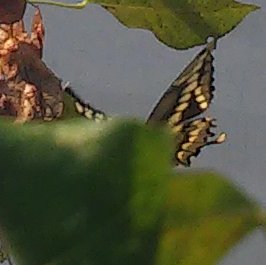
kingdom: Animalia
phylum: Arthropoda
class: Insecta
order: Lepidoptera
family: Papilionidae
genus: Papilio
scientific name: Papilio cresphontes
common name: Eastern Giant Swallowtail
